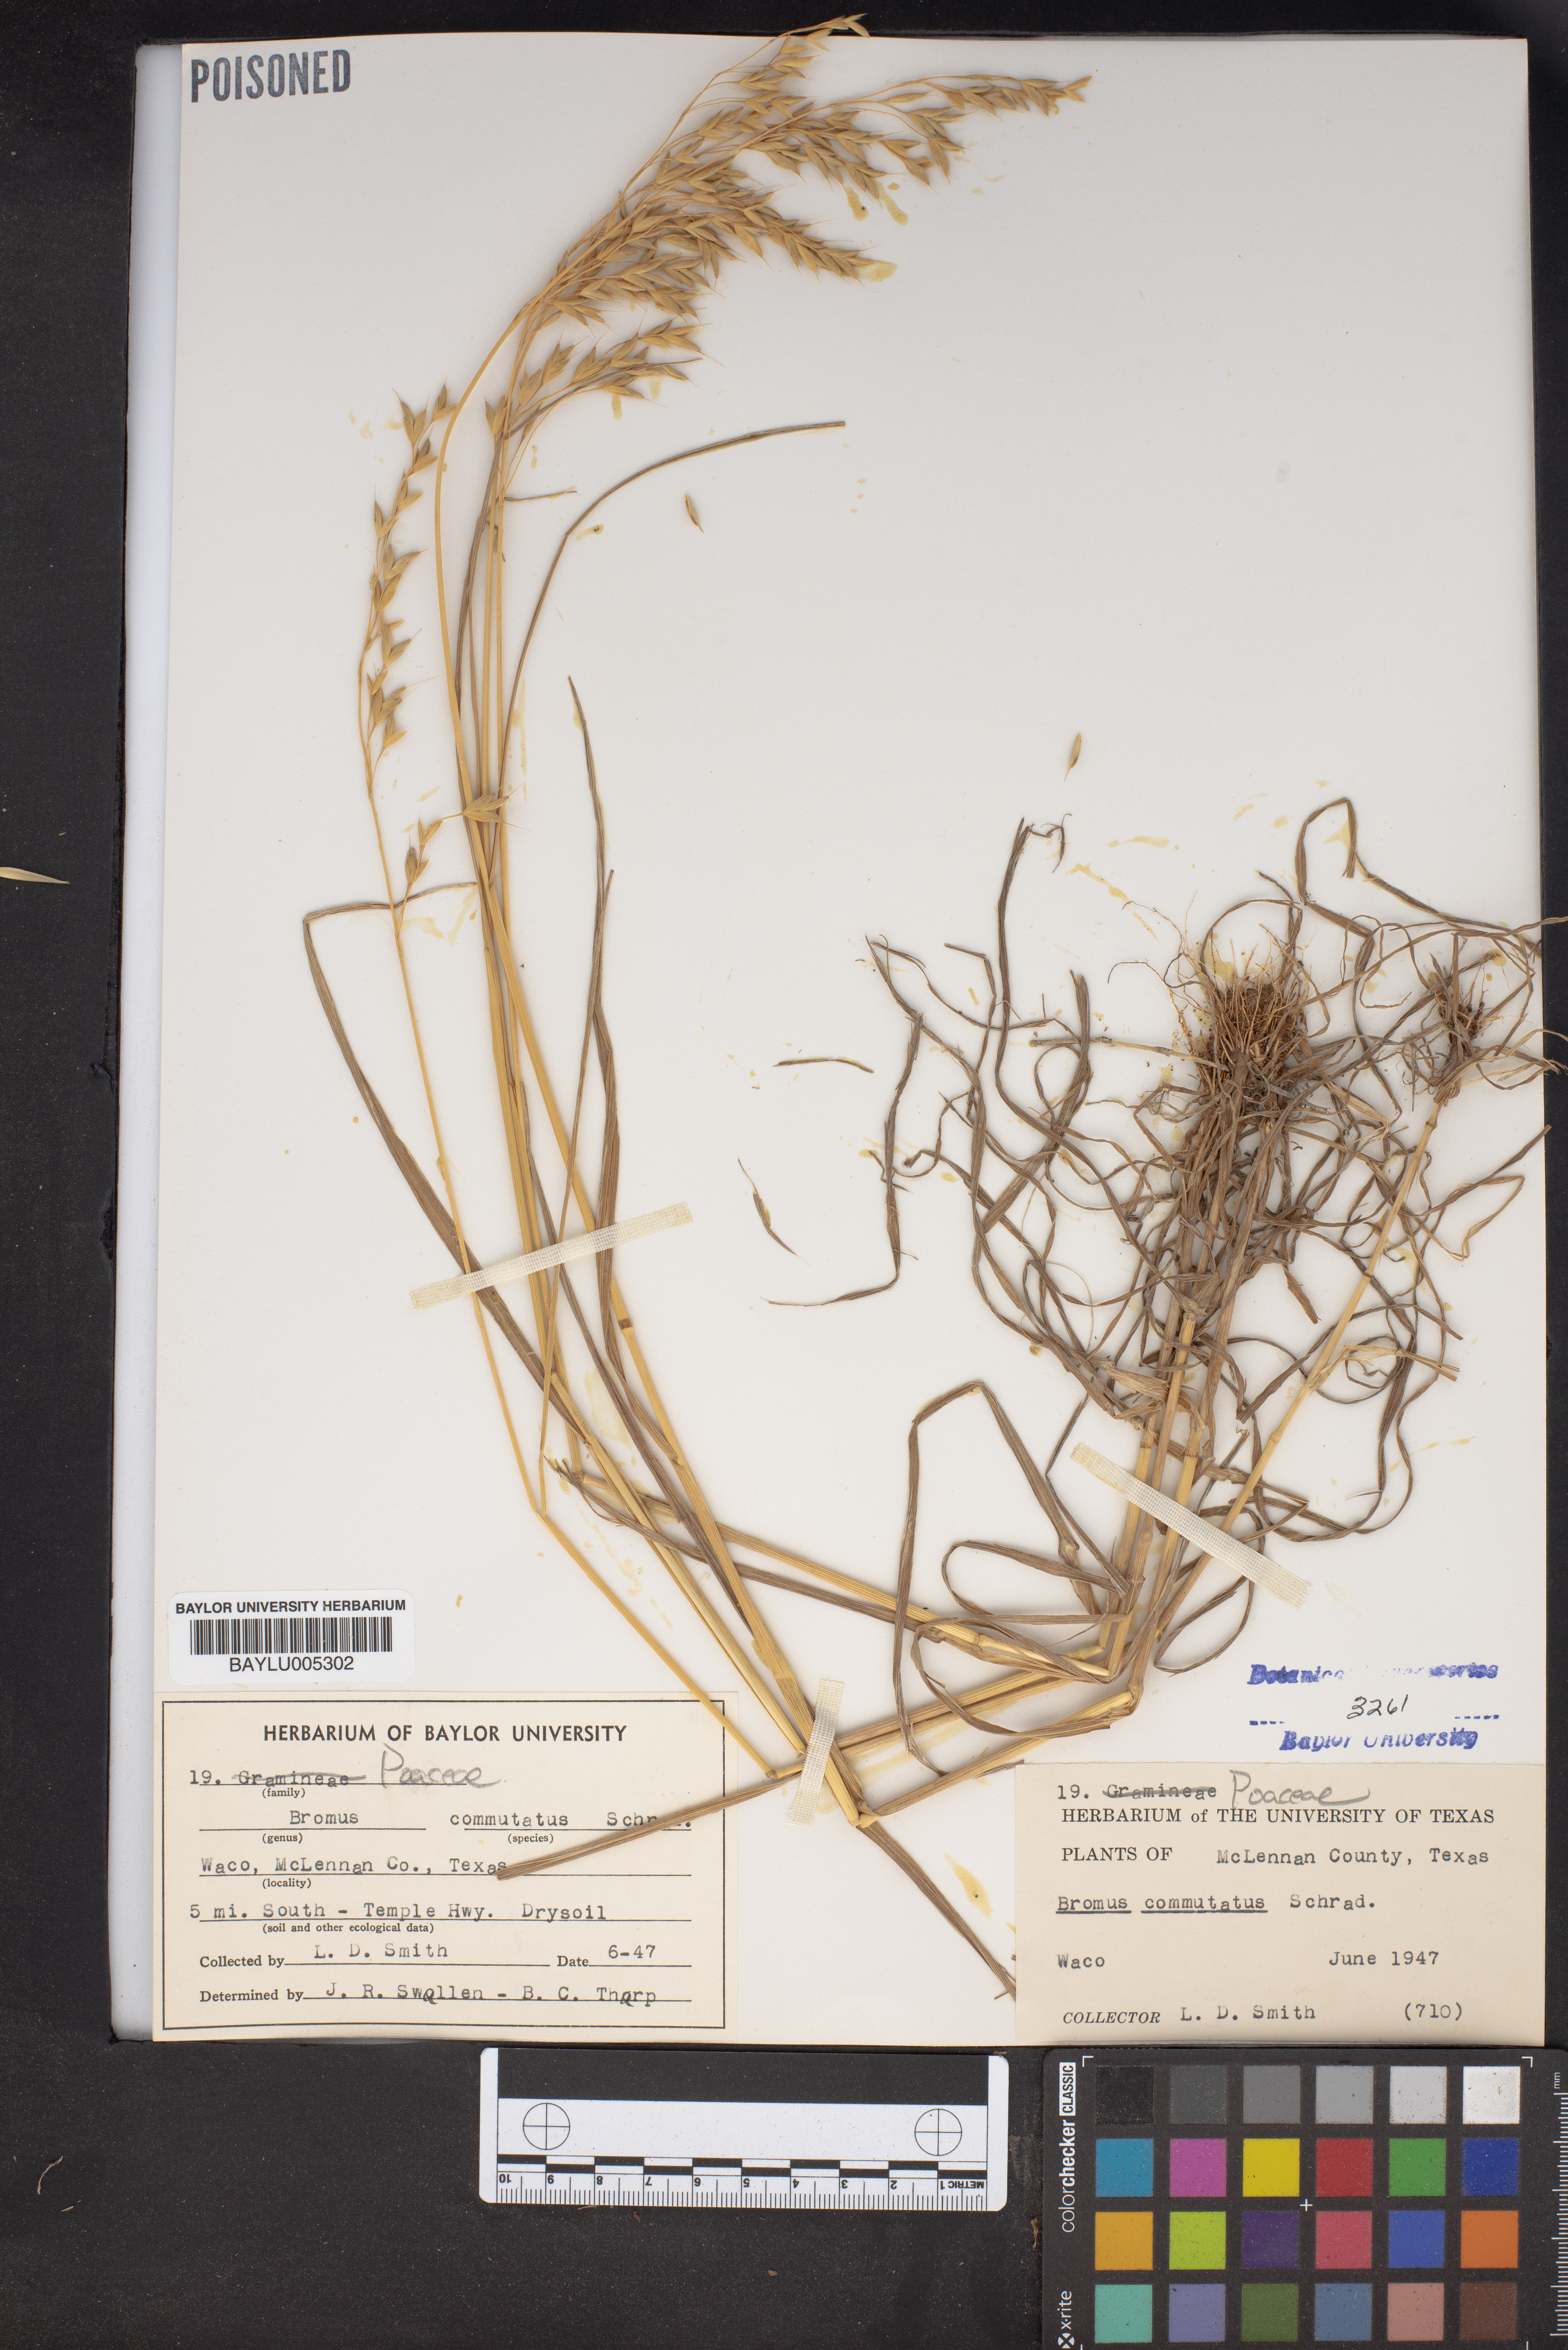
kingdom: Plantae
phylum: Tracheophyta
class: Liliopsida
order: Poales
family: Poaceae
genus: Bromus
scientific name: Bromus commutatus
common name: Meadow brome
